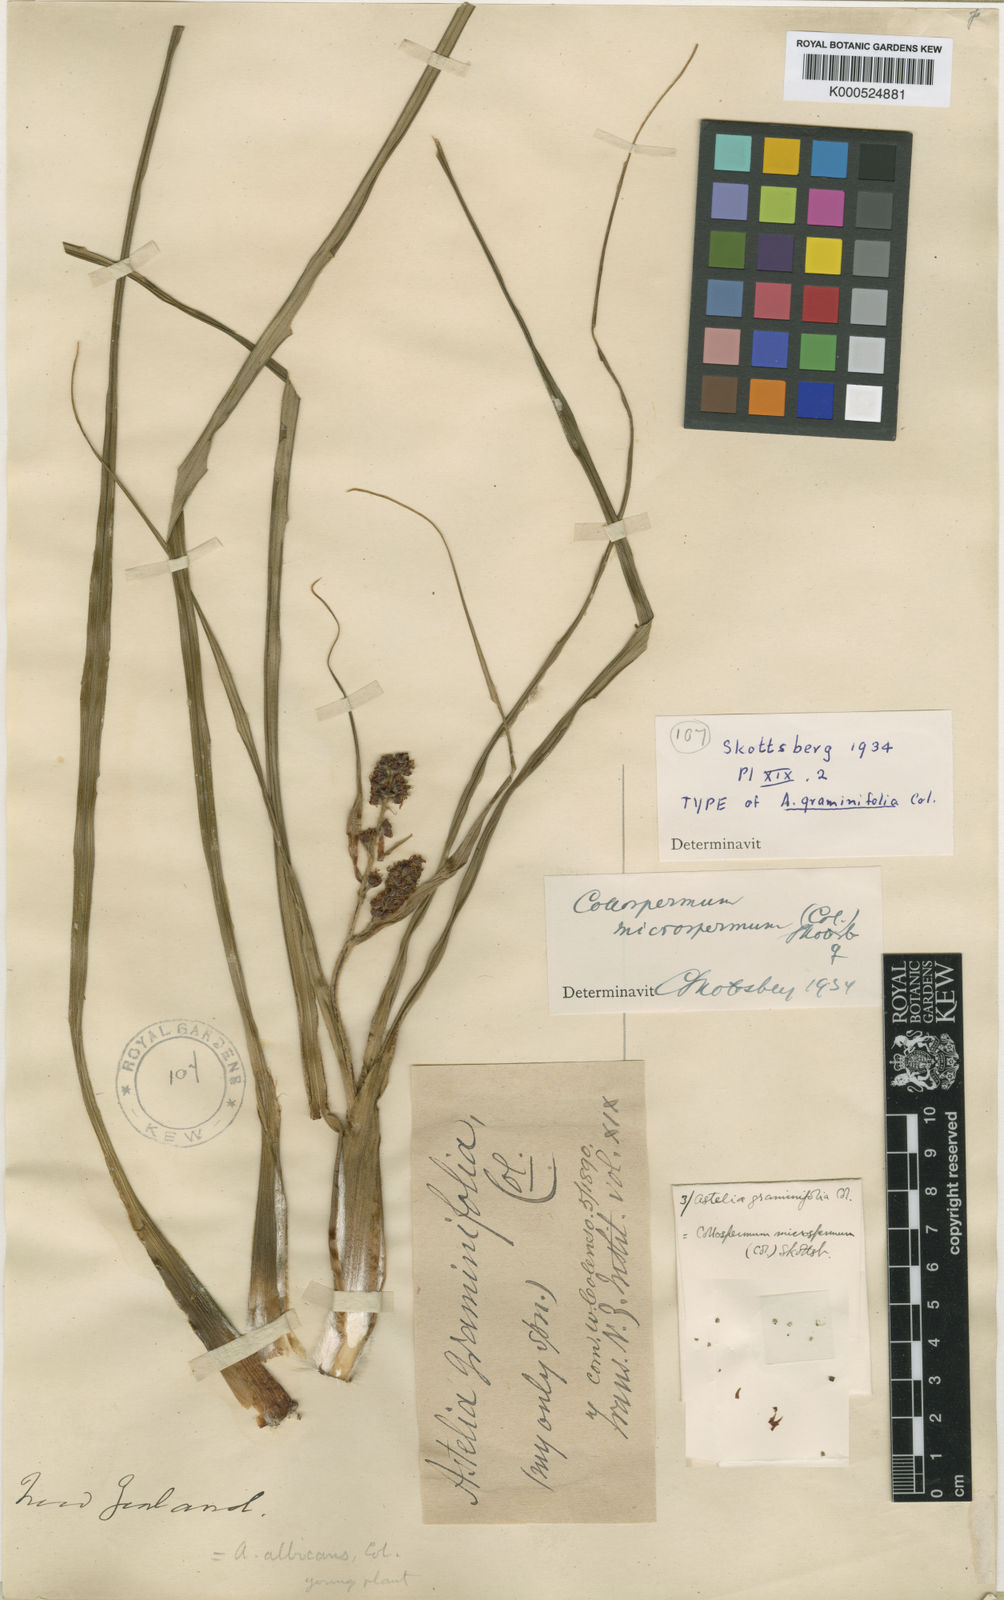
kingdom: Plantae
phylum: Tracheophyta
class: Liliopsida
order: Asparagales
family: Asteliaceae
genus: Astelia
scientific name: Astelia microsperma
